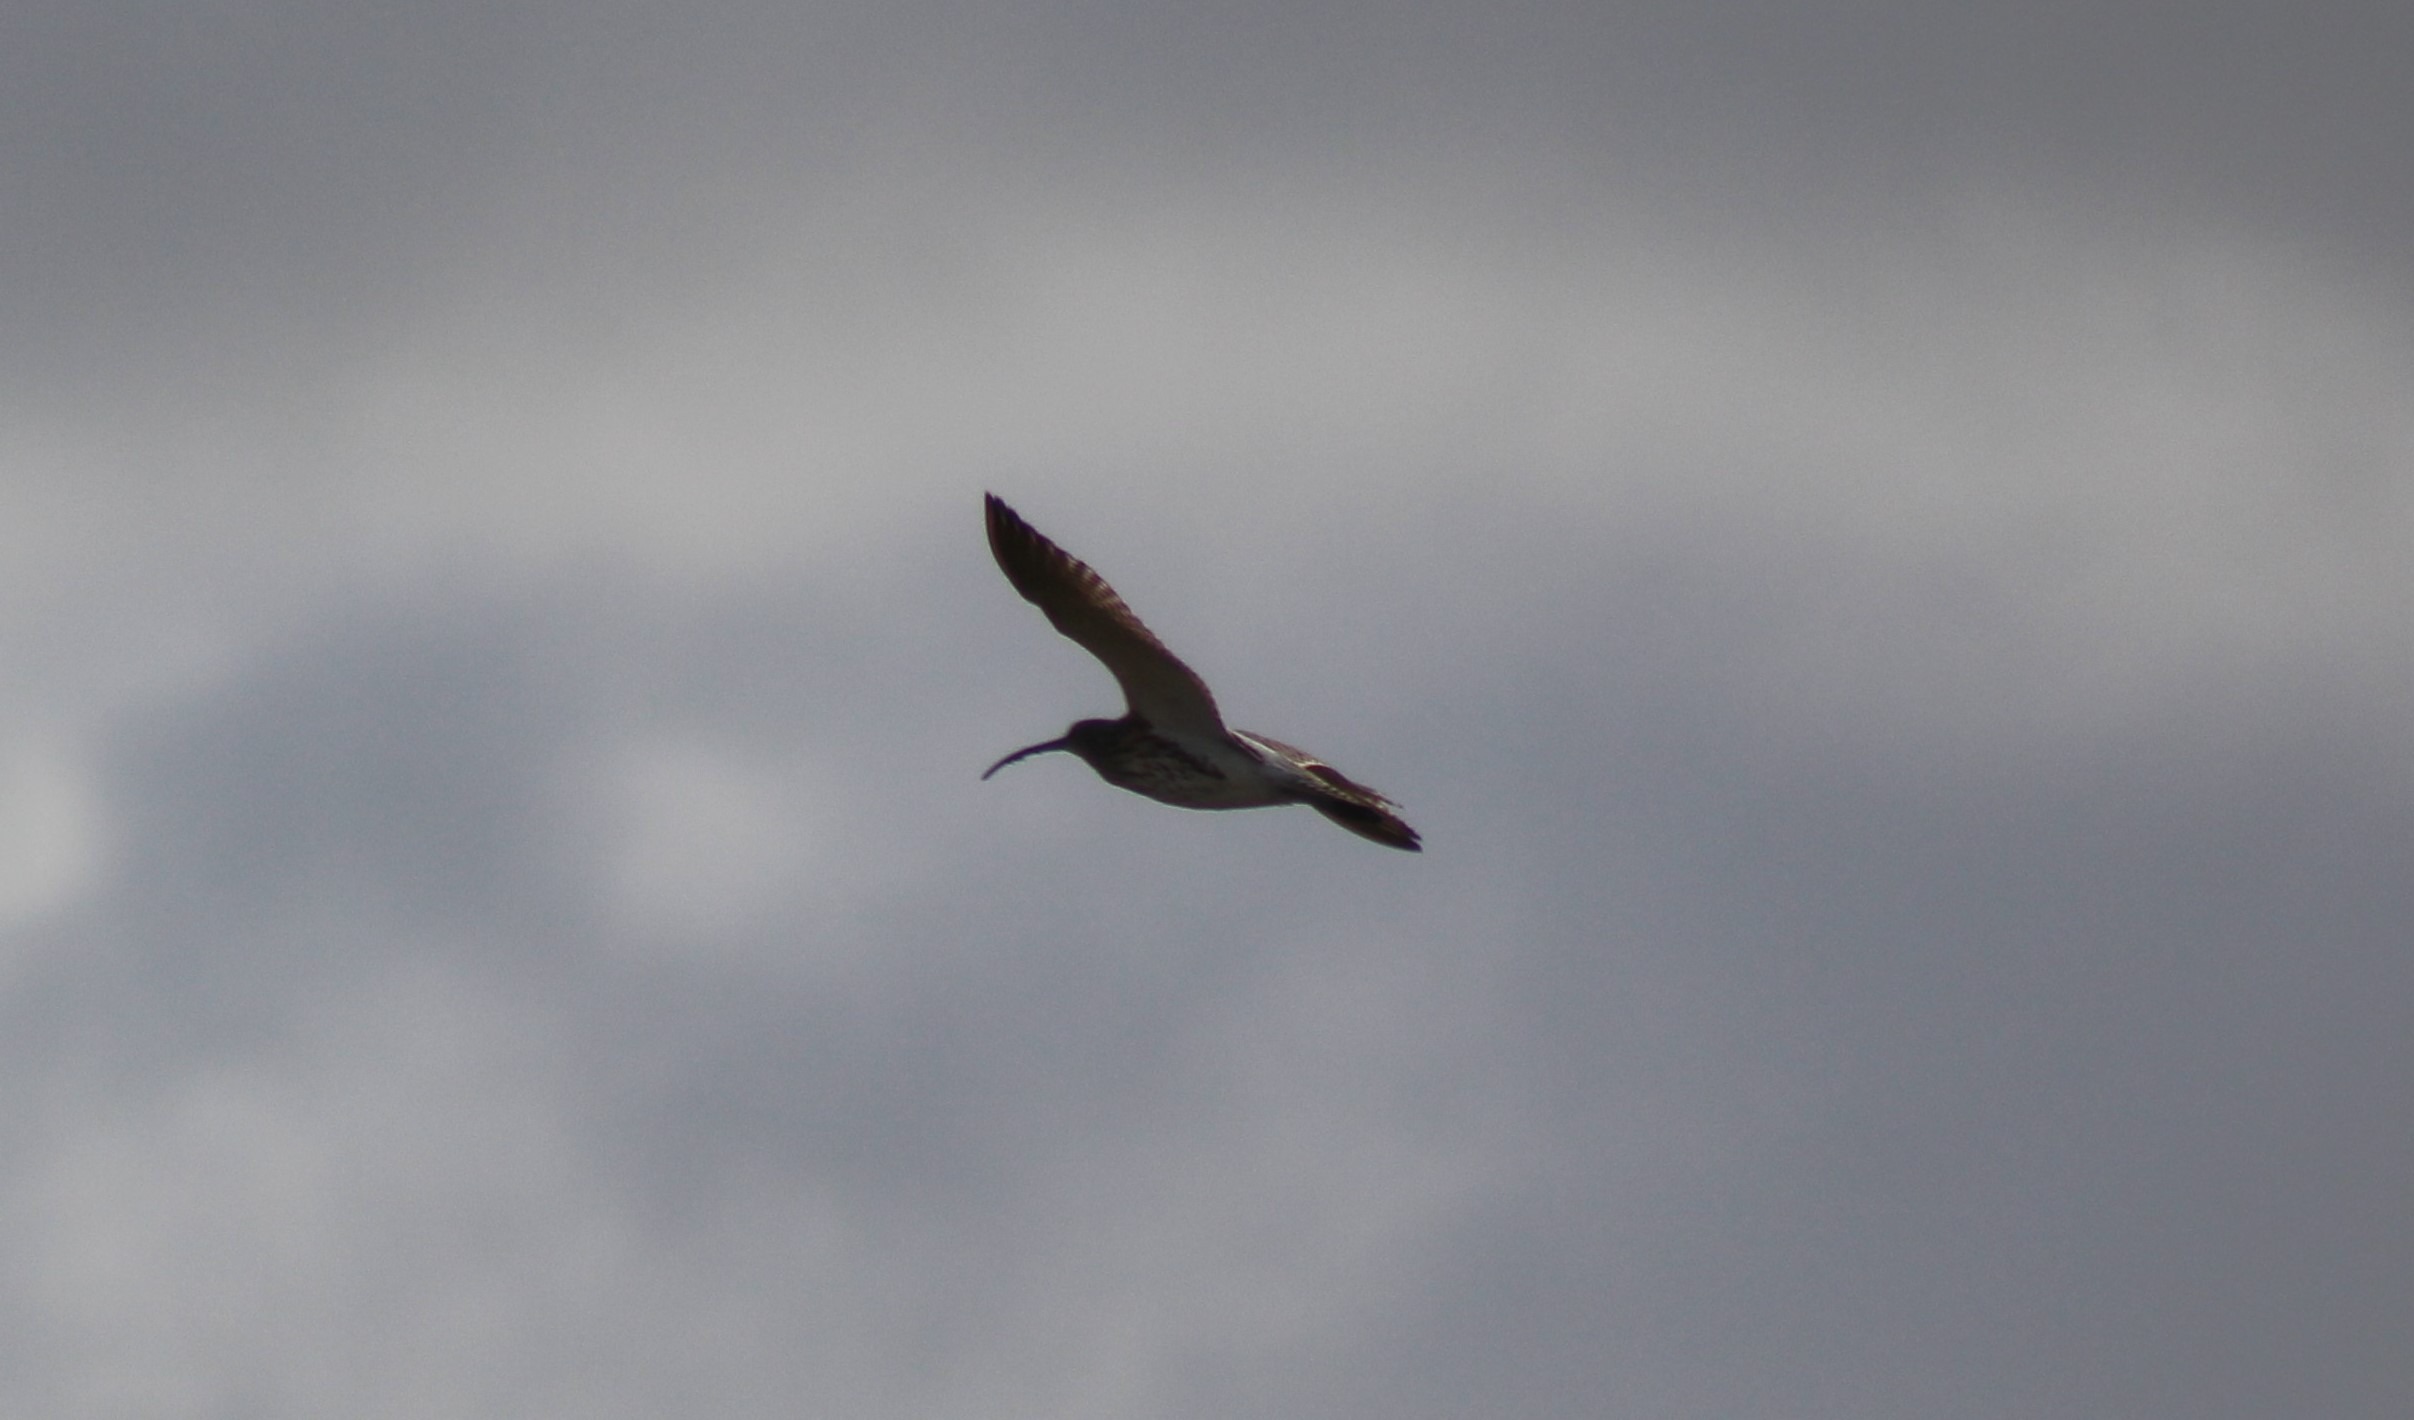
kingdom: Animalia
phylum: Chordata
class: Aves
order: Charadriiformes
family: Scolopacidae
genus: Numenius
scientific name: Numenius arquata
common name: Storspove
